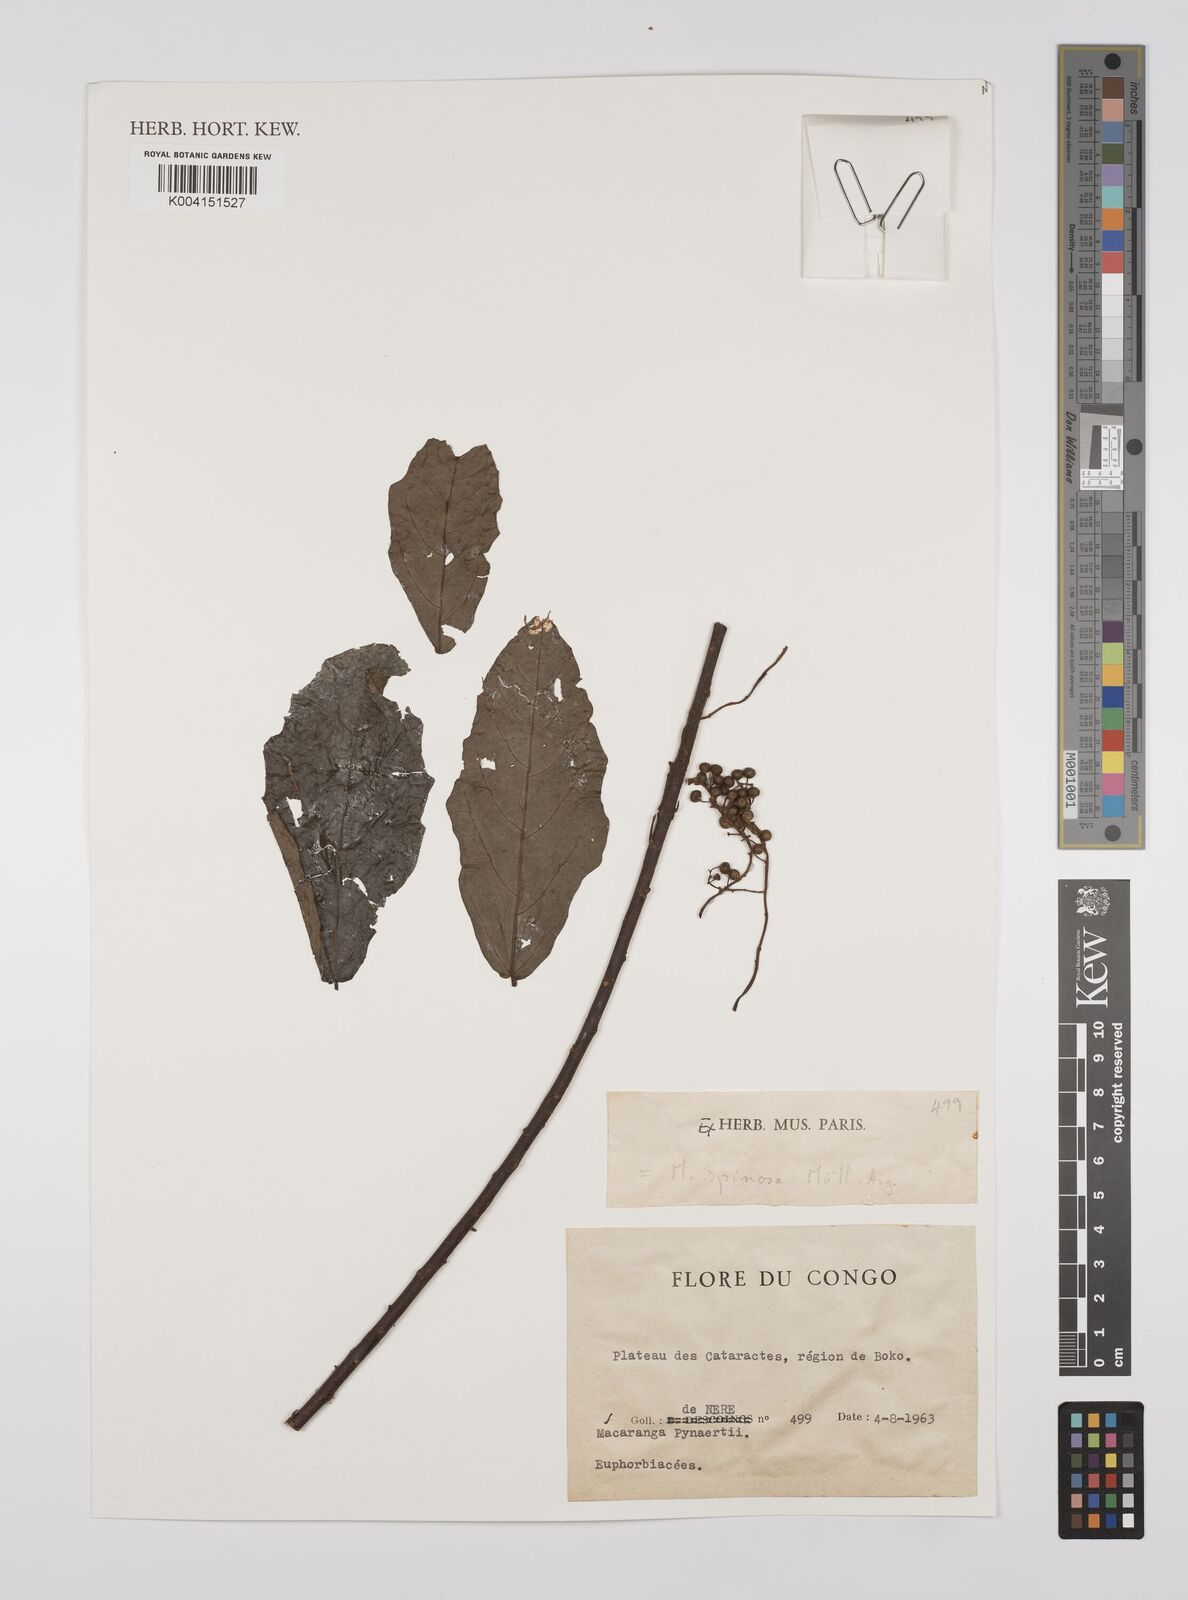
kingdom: Plantae
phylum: Tracheophyta
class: Magnoliopsida
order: Malpighiales
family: Euphorbiaceae
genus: Macaranga
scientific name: Macaranga spinosa
